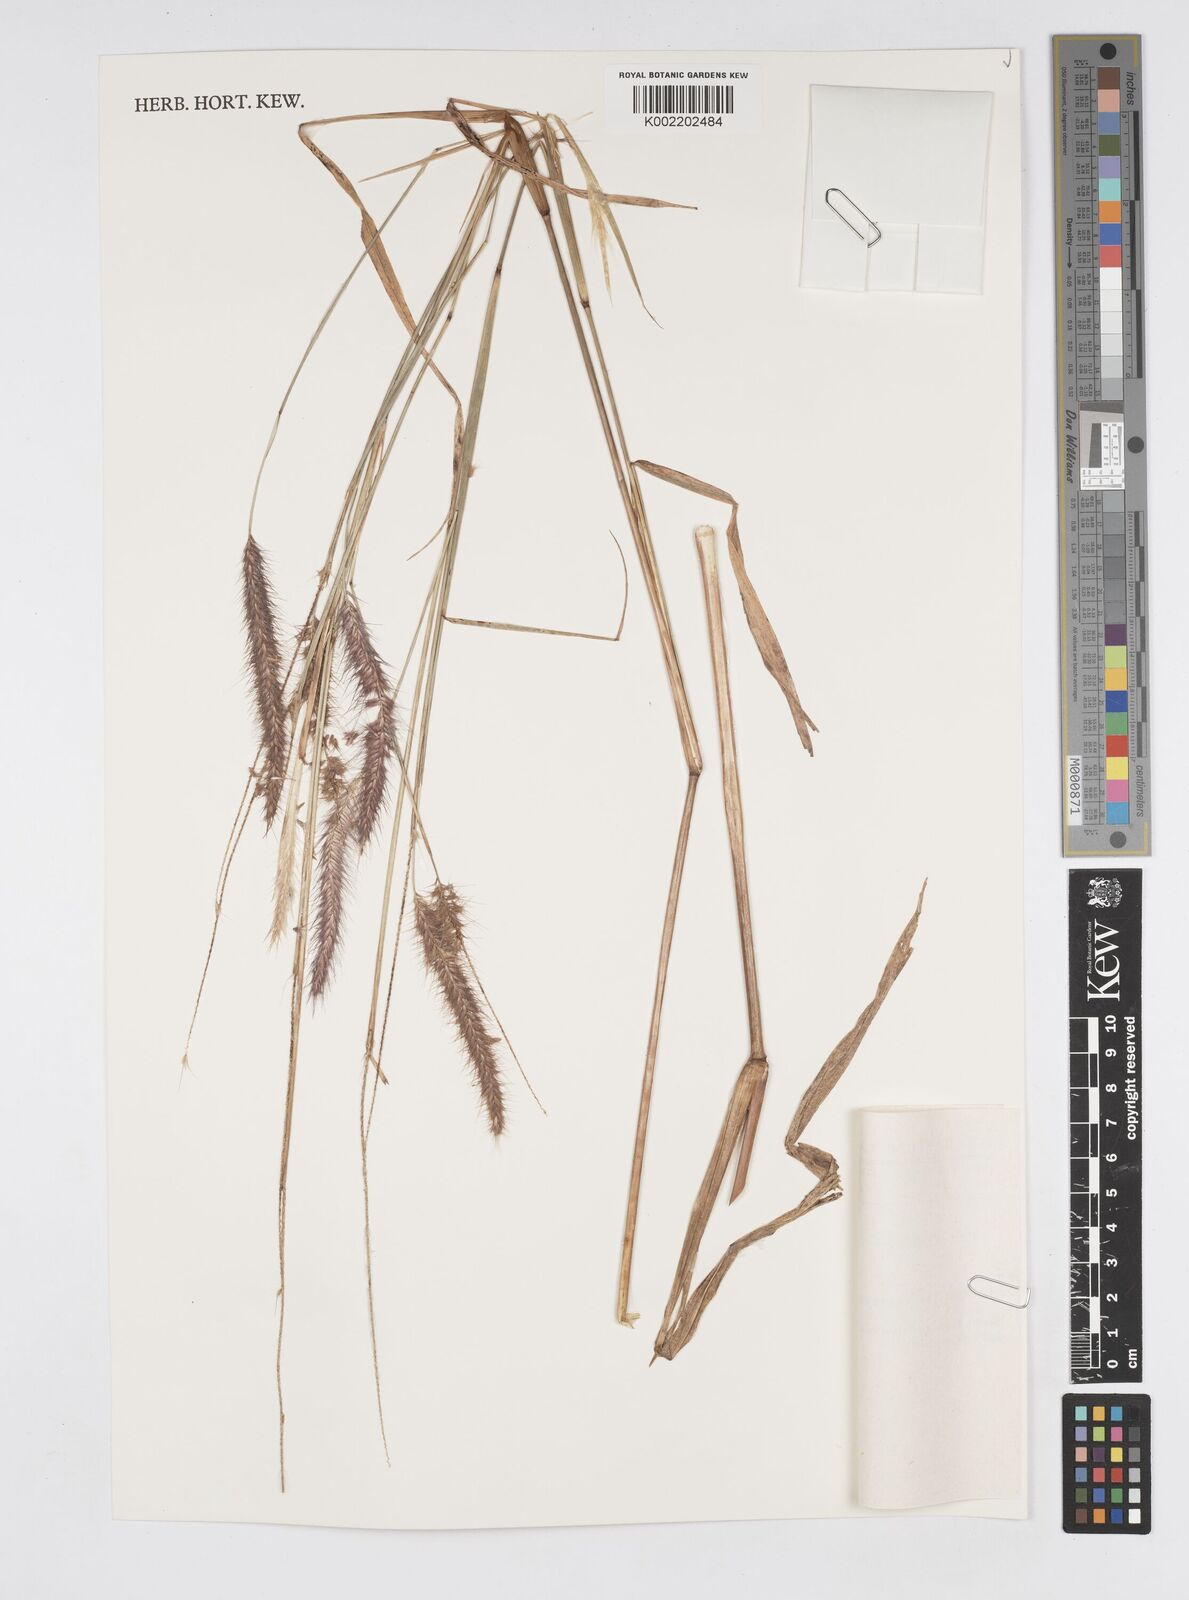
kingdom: Plantae
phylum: Tracheophyta
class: Liliopsida
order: Poales
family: Poaceae
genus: Setaria
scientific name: Setaria parviflora
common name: Knotroot bristle-grass
